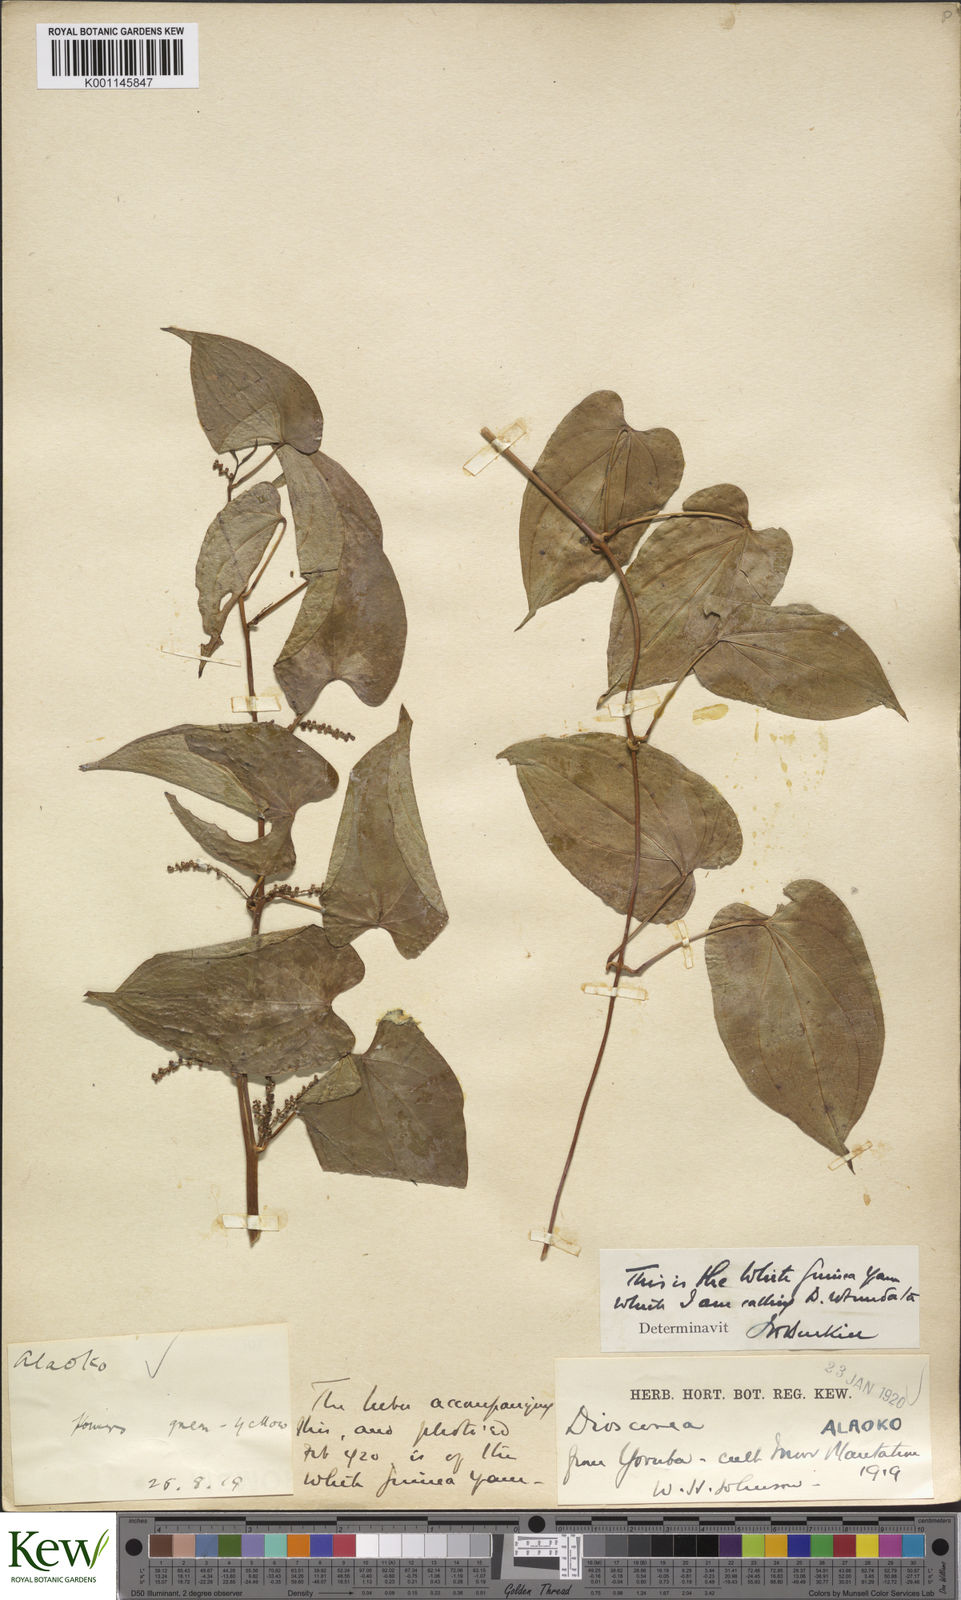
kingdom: Plantae
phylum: Tracheophyta
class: Liliopsida
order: Dioscoreales
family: Dioscoreaceae
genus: Dioscorea
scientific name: Dioscorea cayenensis
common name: Attoto yam
